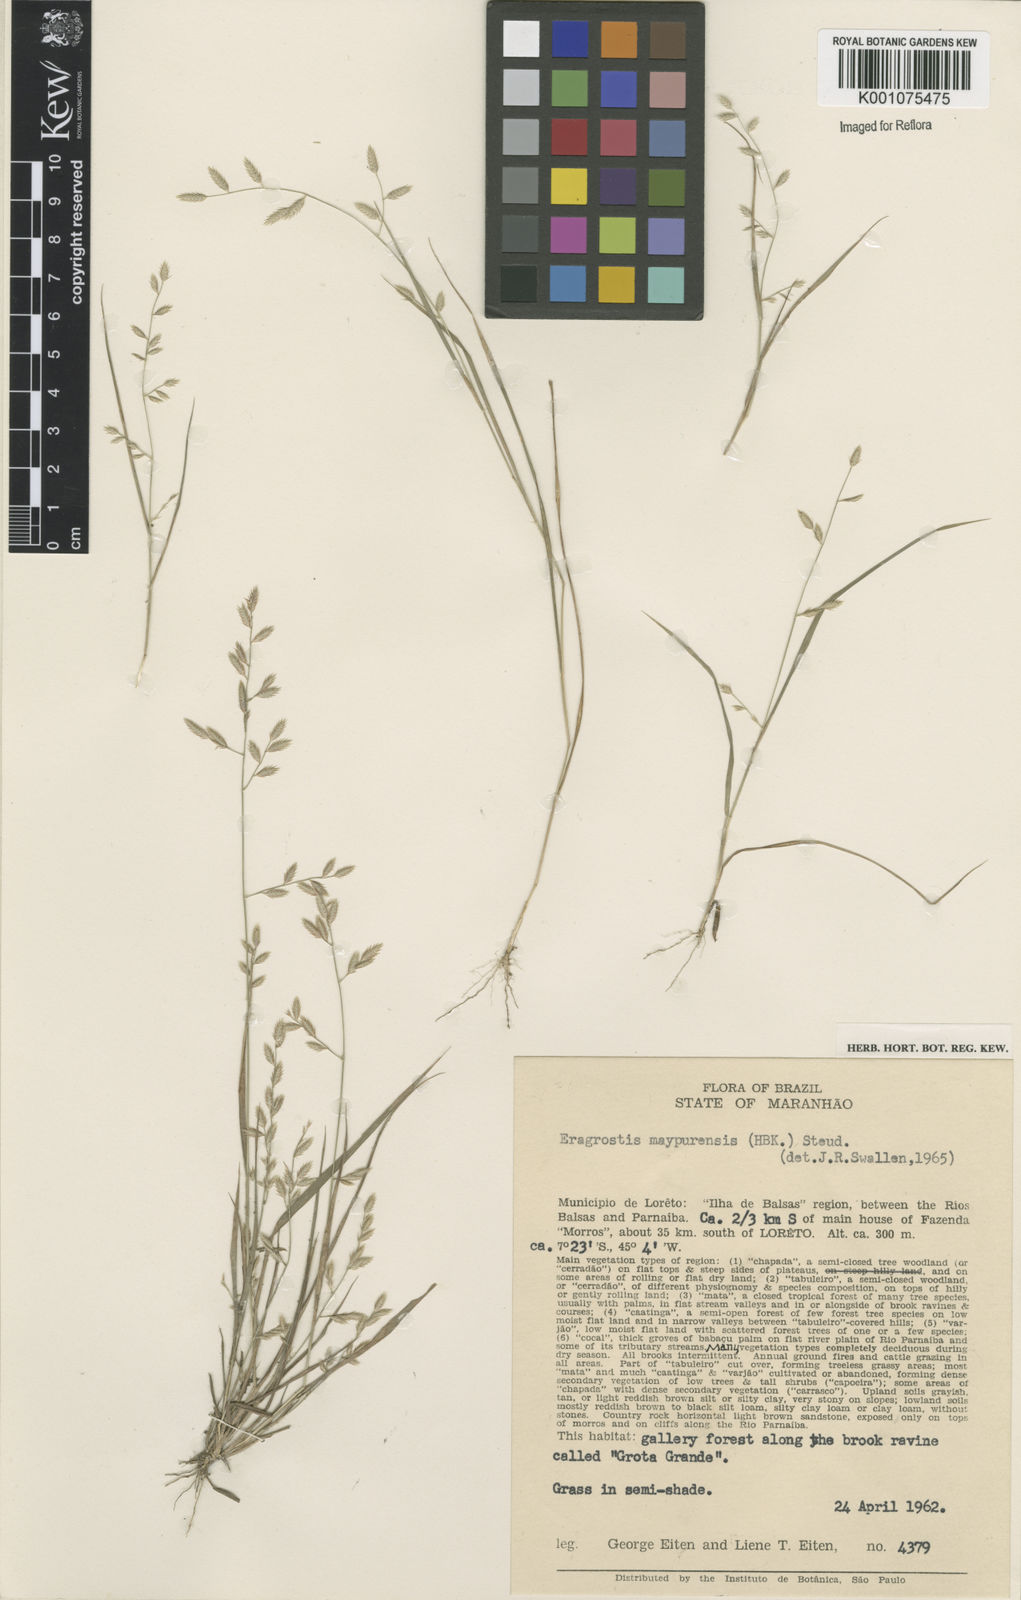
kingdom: Plantae
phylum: Tracheophyta
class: Liliopsida
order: Poales
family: Poaceae
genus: Eragrostis
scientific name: Eragrostis maypurensis
